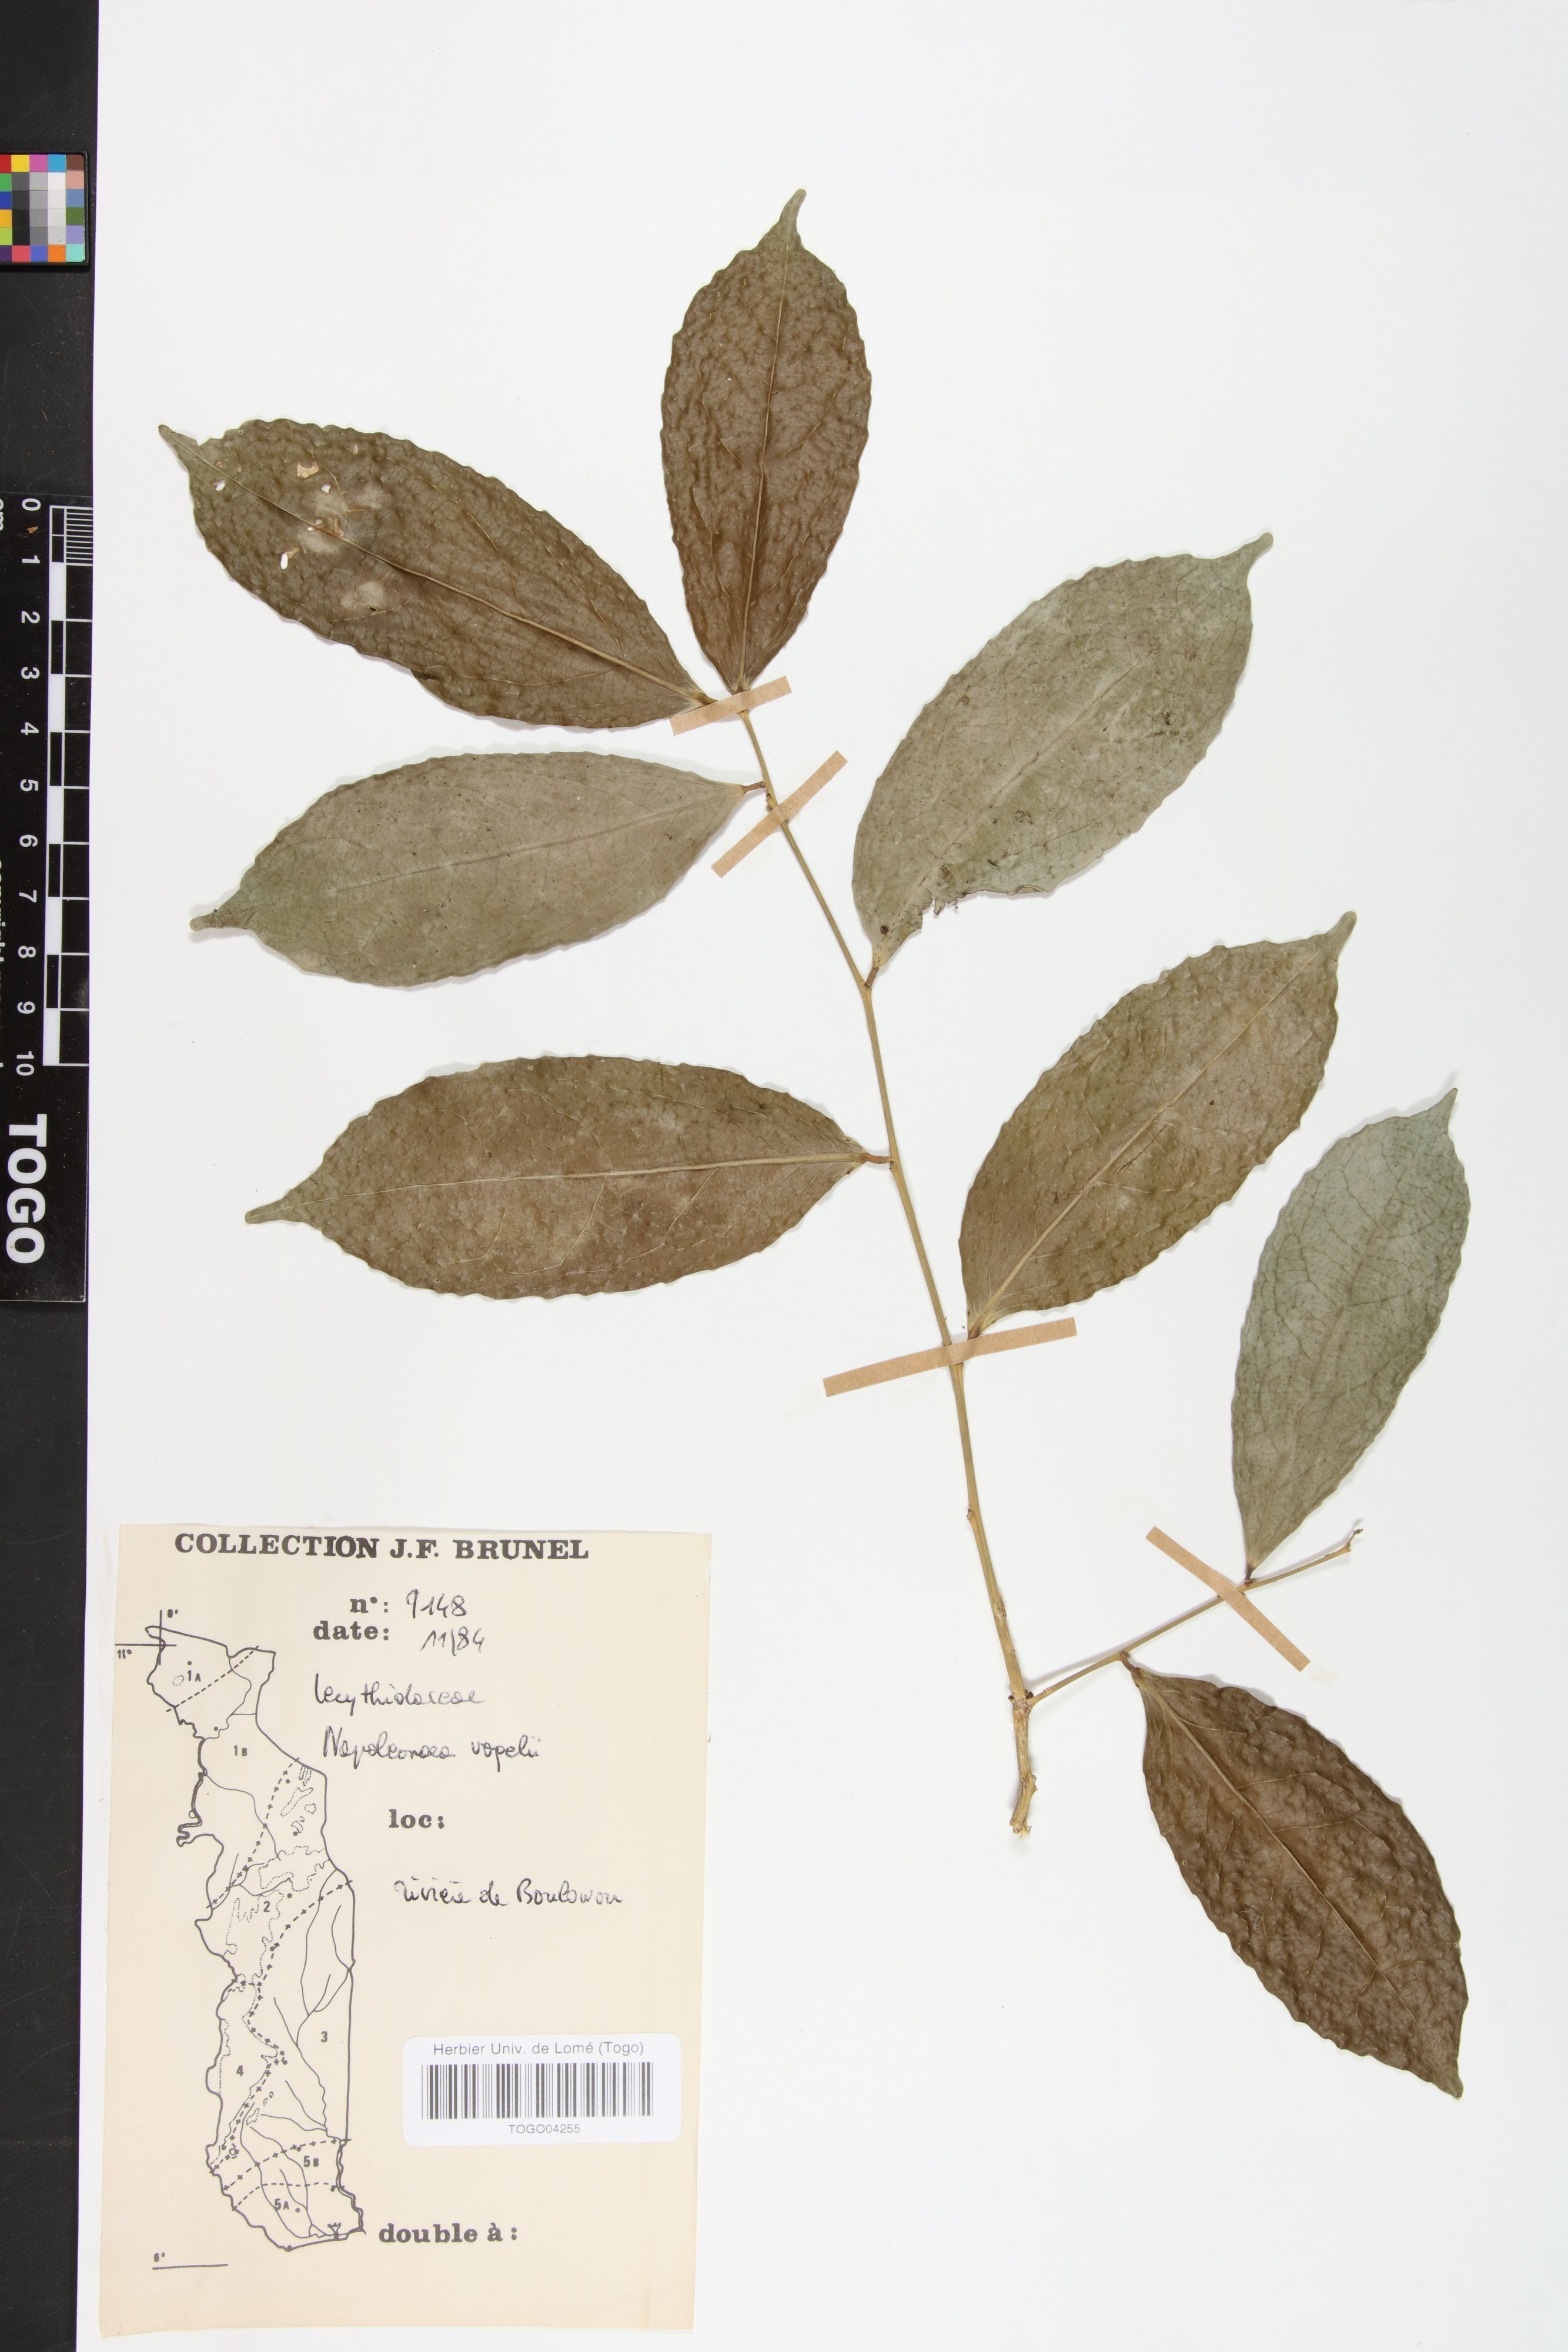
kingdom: Plantae
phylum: Tracheophyta
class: Magnoliopsida
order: Ericales
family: Lecythidaceae
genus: Napoleonaea
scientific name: Napoleonaea vogelii
